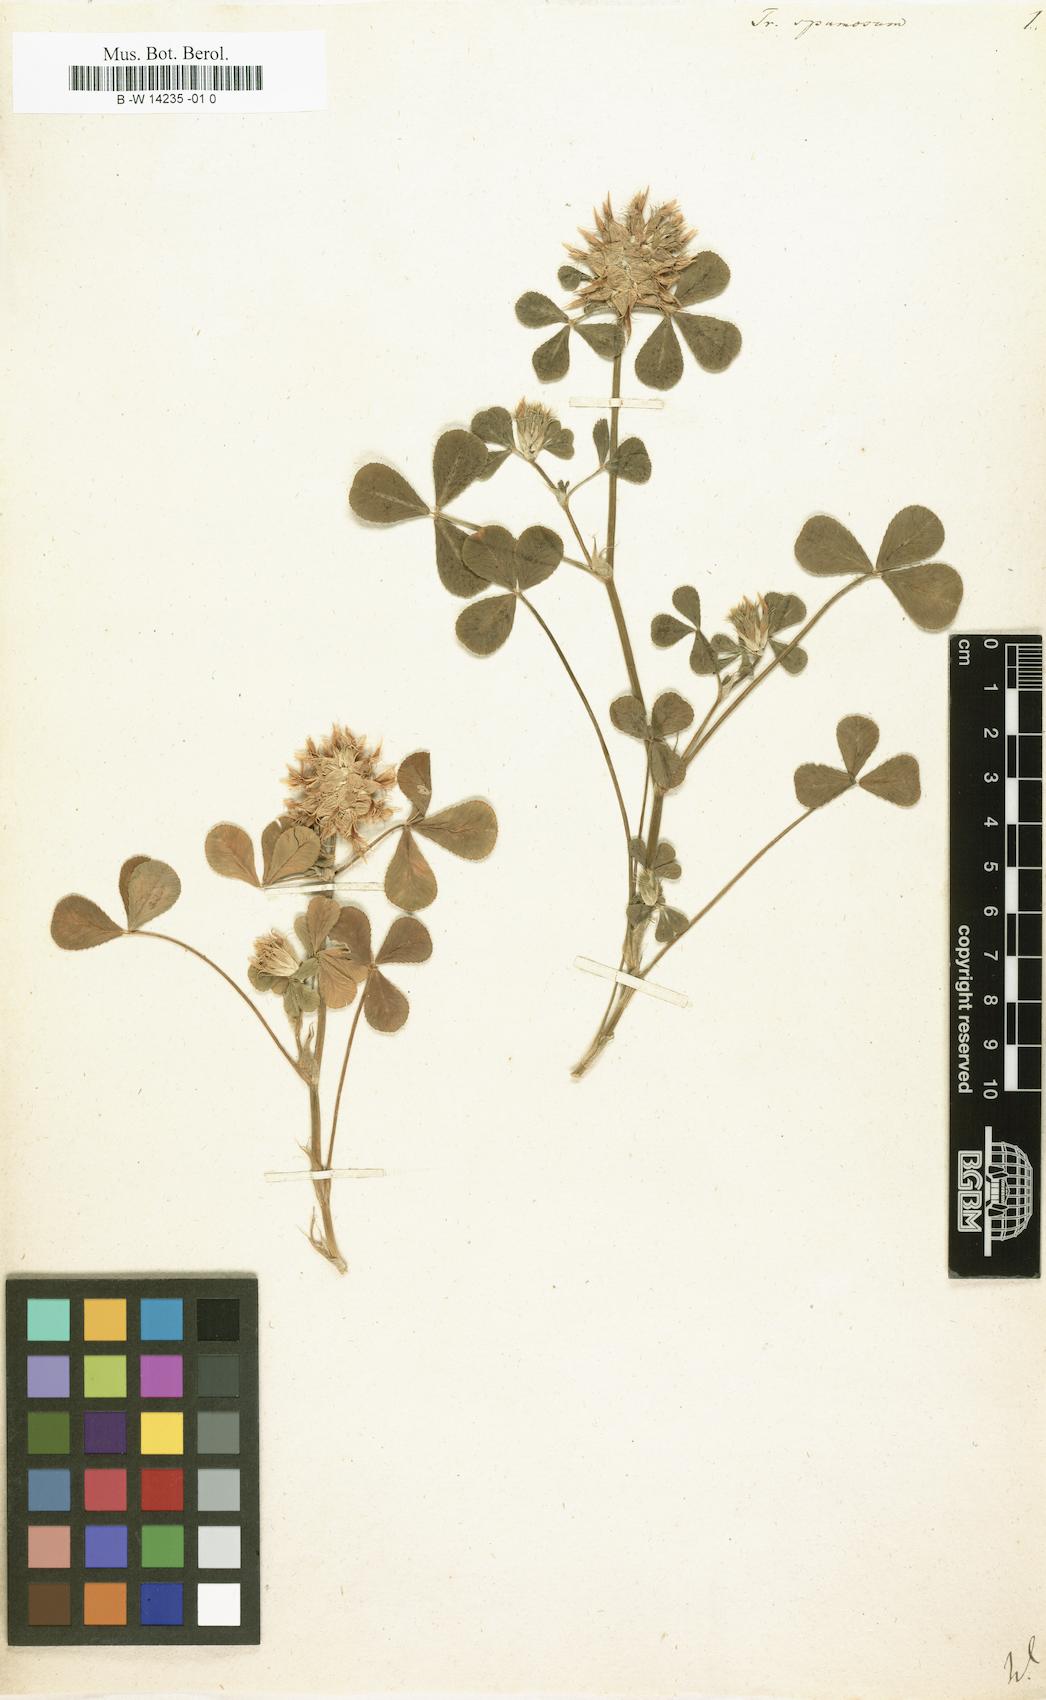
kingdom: Plantae
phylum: Tracheophyta
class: Magnoliopsida
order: Fabales
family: Fabaceae
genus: Trifolium
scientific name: Trifolium spumosum
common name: Mediterranean clover
